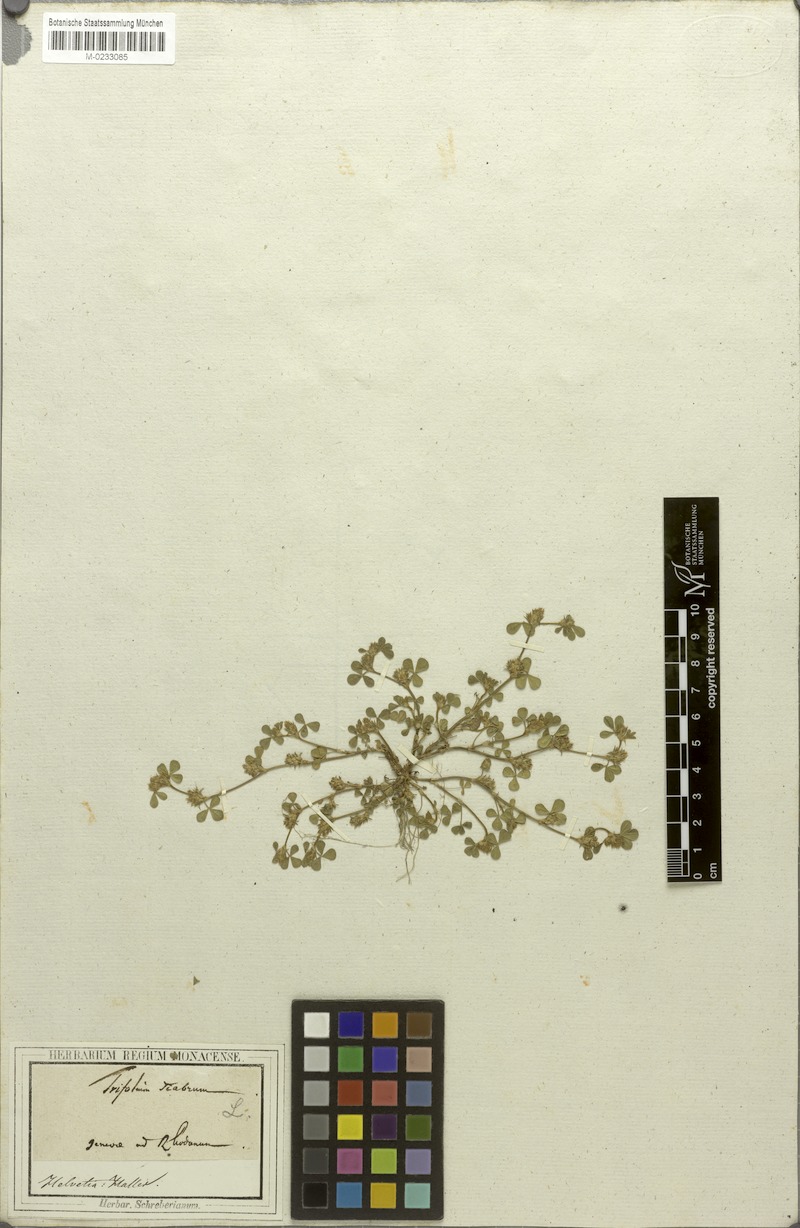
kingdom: Plantae
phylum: Tracheophyta
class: Magnoliopsida
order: Fabales
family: Fabaceae
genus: Trifolium
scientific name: Trifolium scabrum
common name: Rough clover
